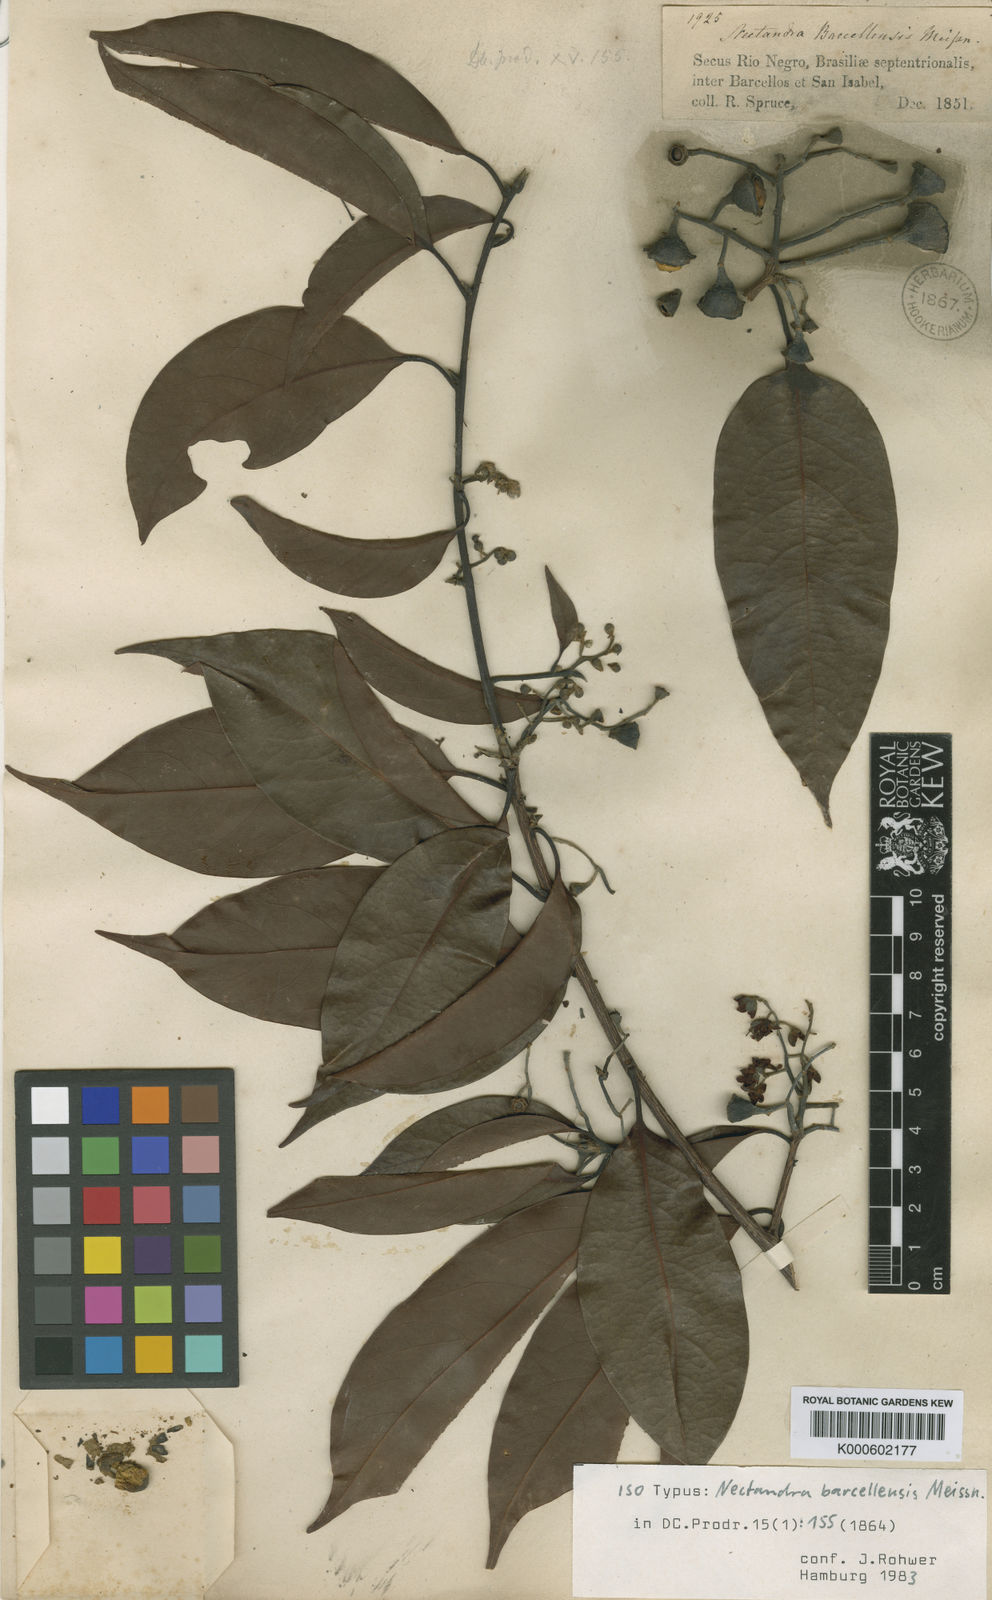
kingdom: Plantae
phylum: Tracheophyta
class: Magnoliopsida
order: Laurales
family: Lauraceae
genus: Mespilodaphne
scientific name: Mespilodaphne cymbarum
